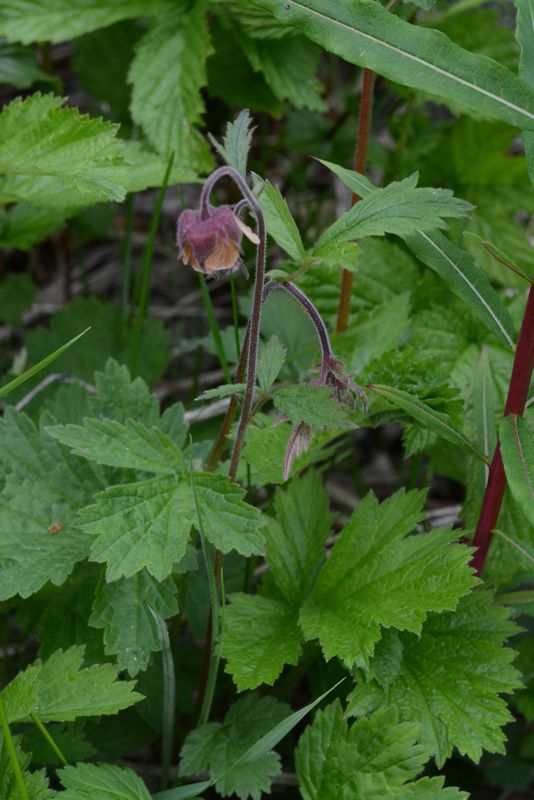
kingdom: Plantae
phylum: Tracheophyta
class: Magnoliopsida
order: Rosales
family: Rosaceae
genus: Geum
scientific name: Geum rivale
